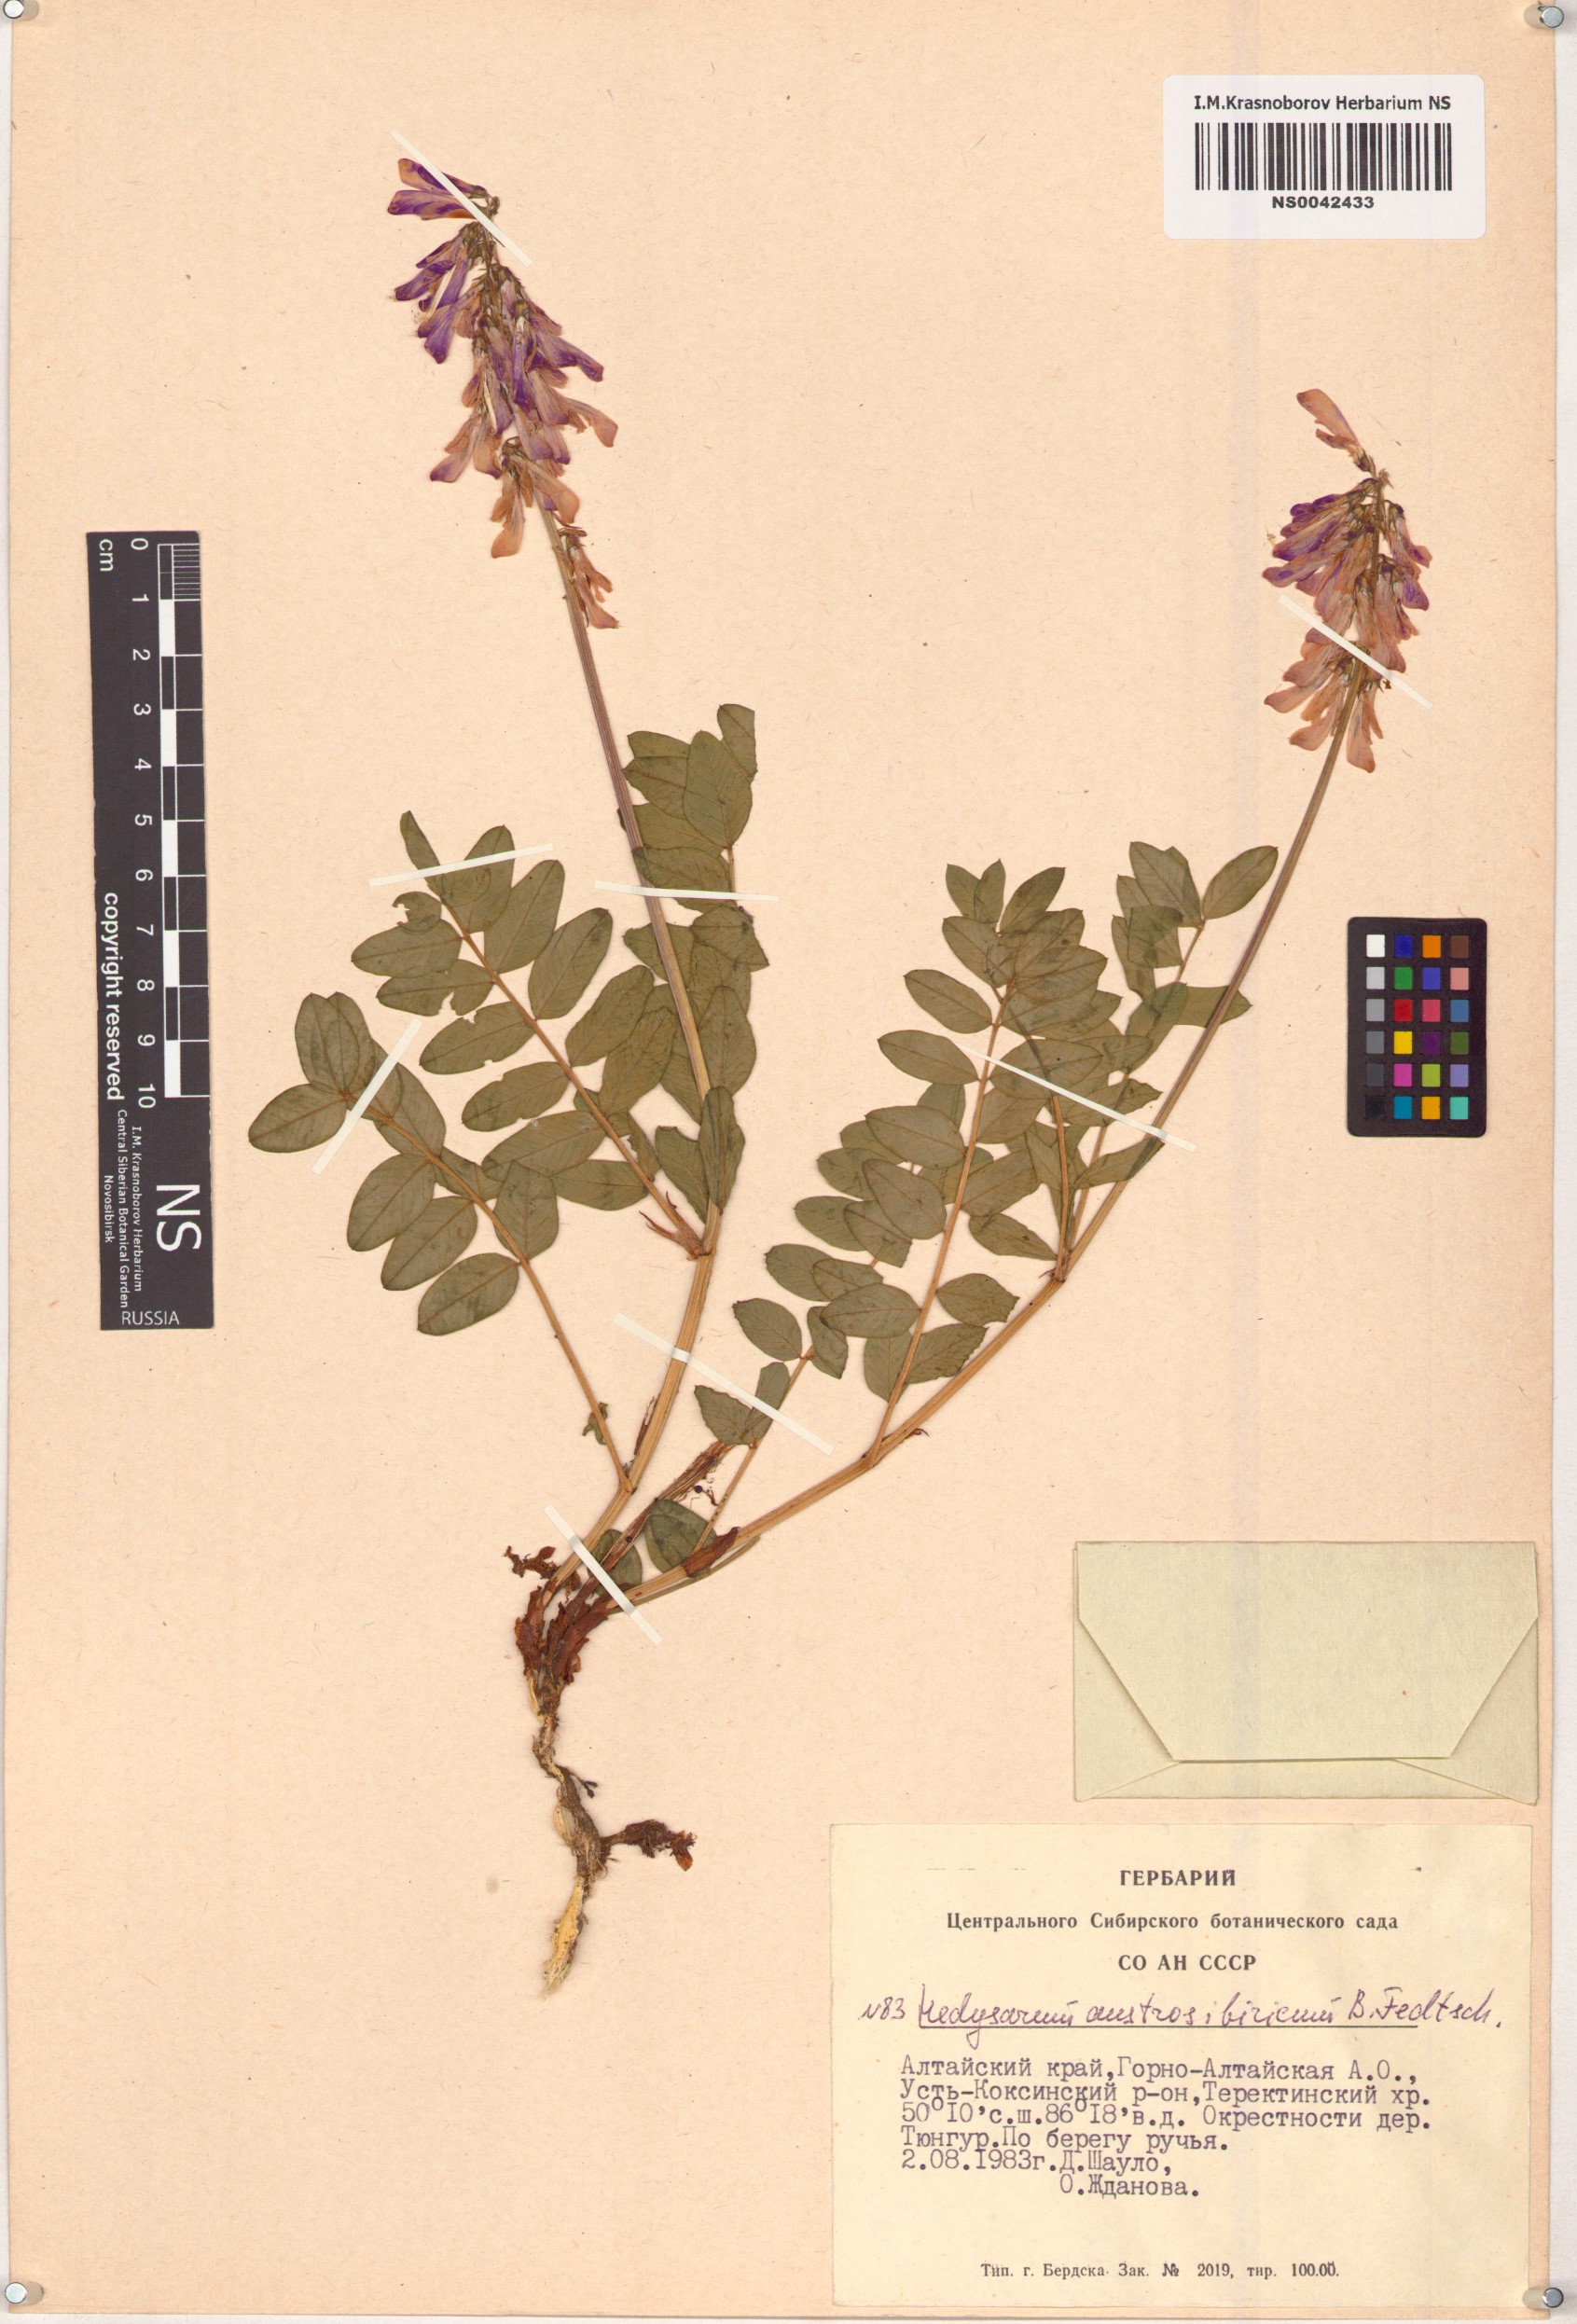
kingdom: Plantae
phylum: Tracheophyta
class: Magnoliopsida
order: Fabales
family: Fabaceae
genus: Hedysarum
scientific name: Hedysarum neglectum
